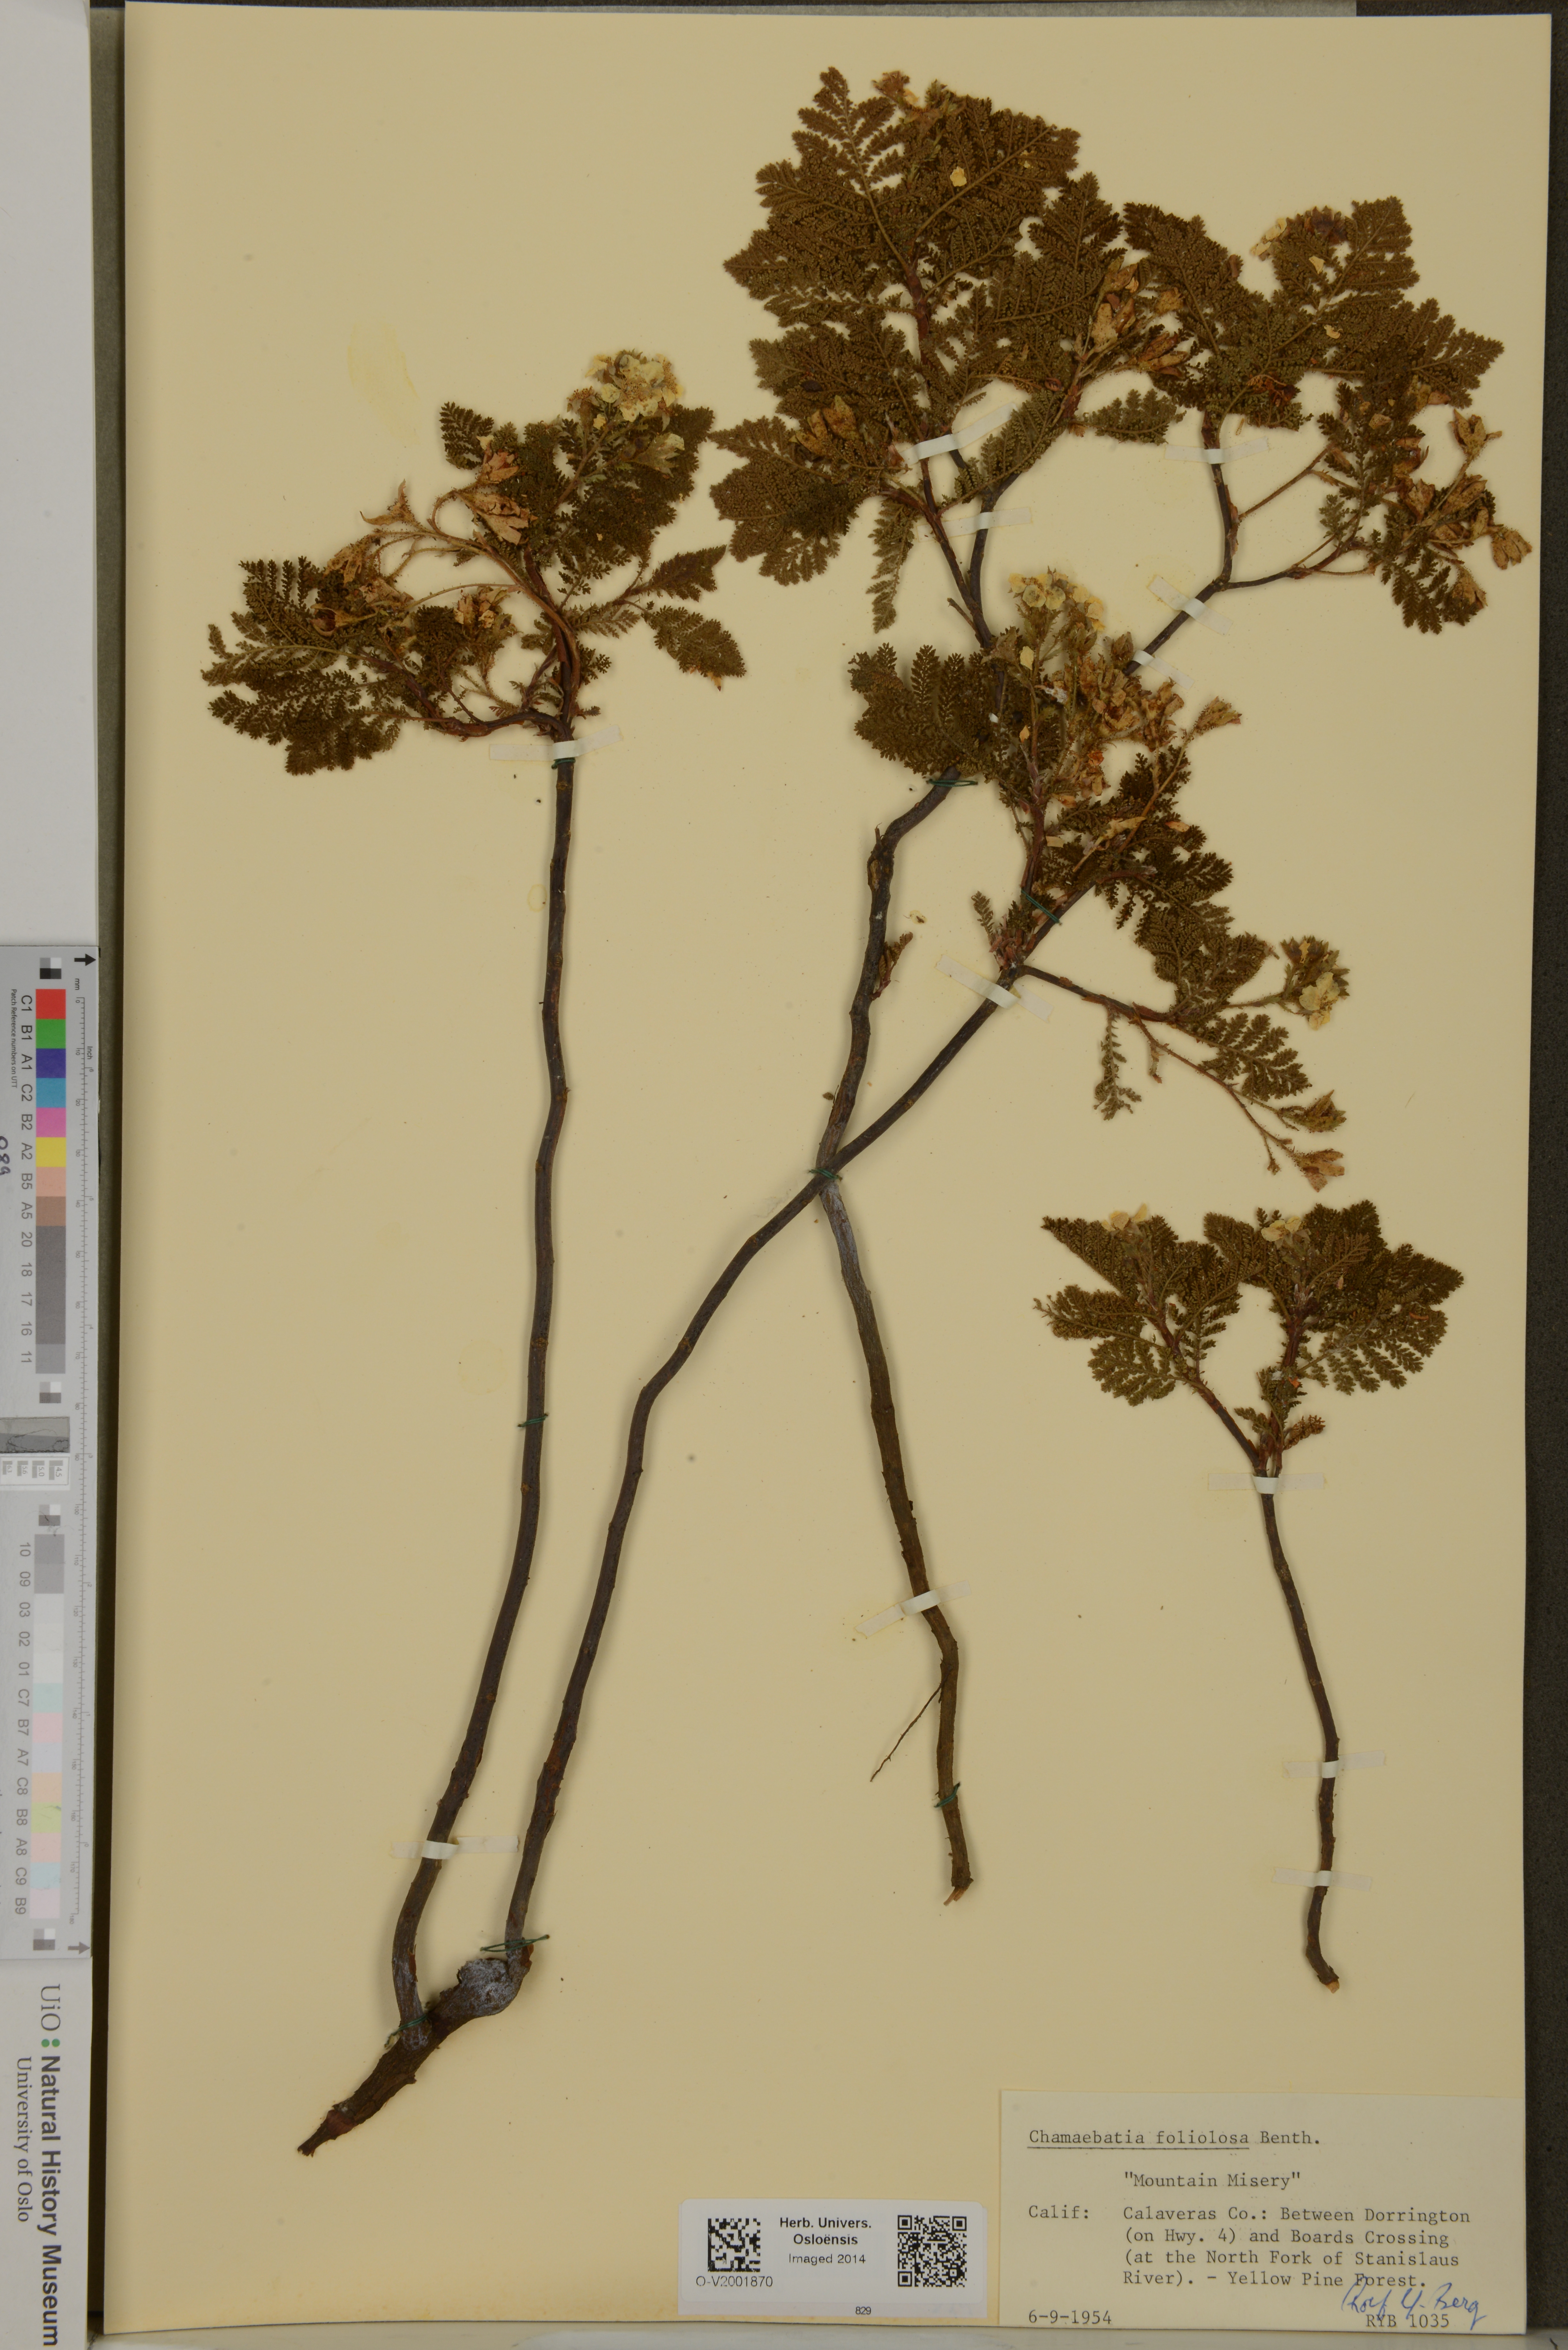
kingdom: Plantae
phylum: Tracheophyta
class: Magnoliopsida
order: Rosales
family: Rosaceae
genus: Chamaebatia
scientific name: Chamaebatia foliolosa
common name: Mountain misery
